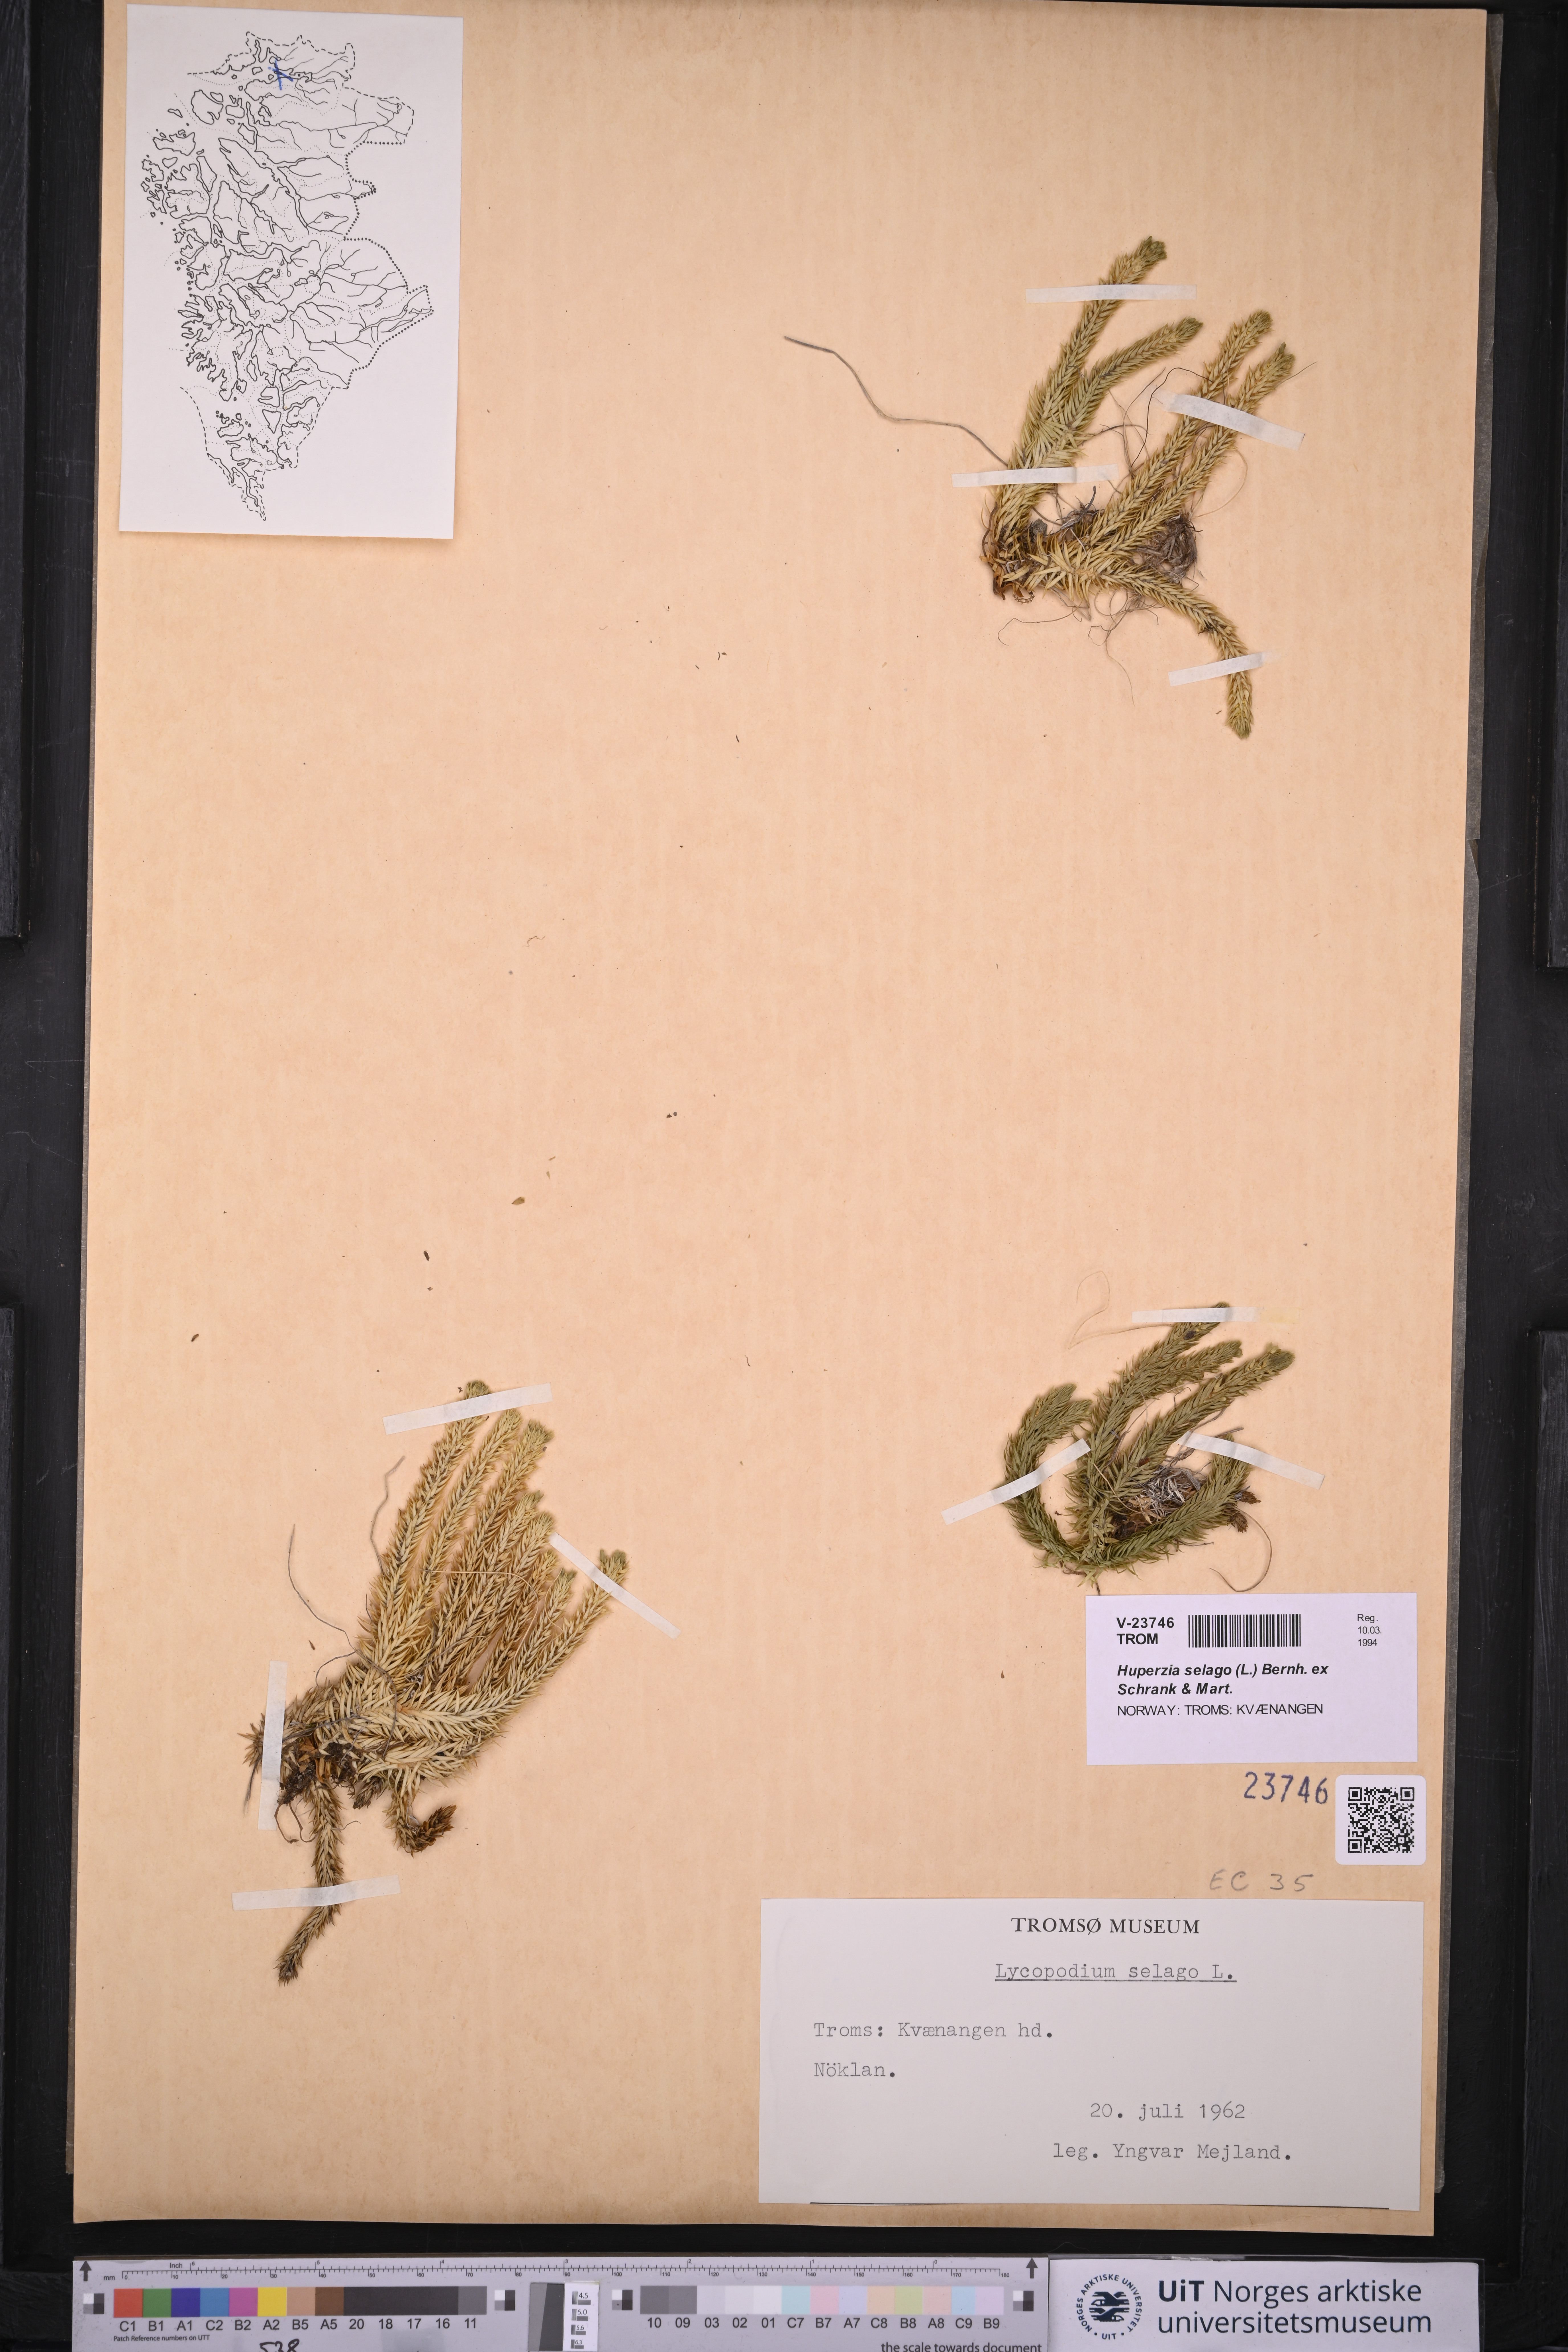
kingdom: Plantae
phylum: Tracheophyta
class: Lycopodiopsida
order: Lycopodiales
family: Lycopodiaceae
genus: Huperzia
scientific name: Huperzia selago
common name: Northern firmoss
